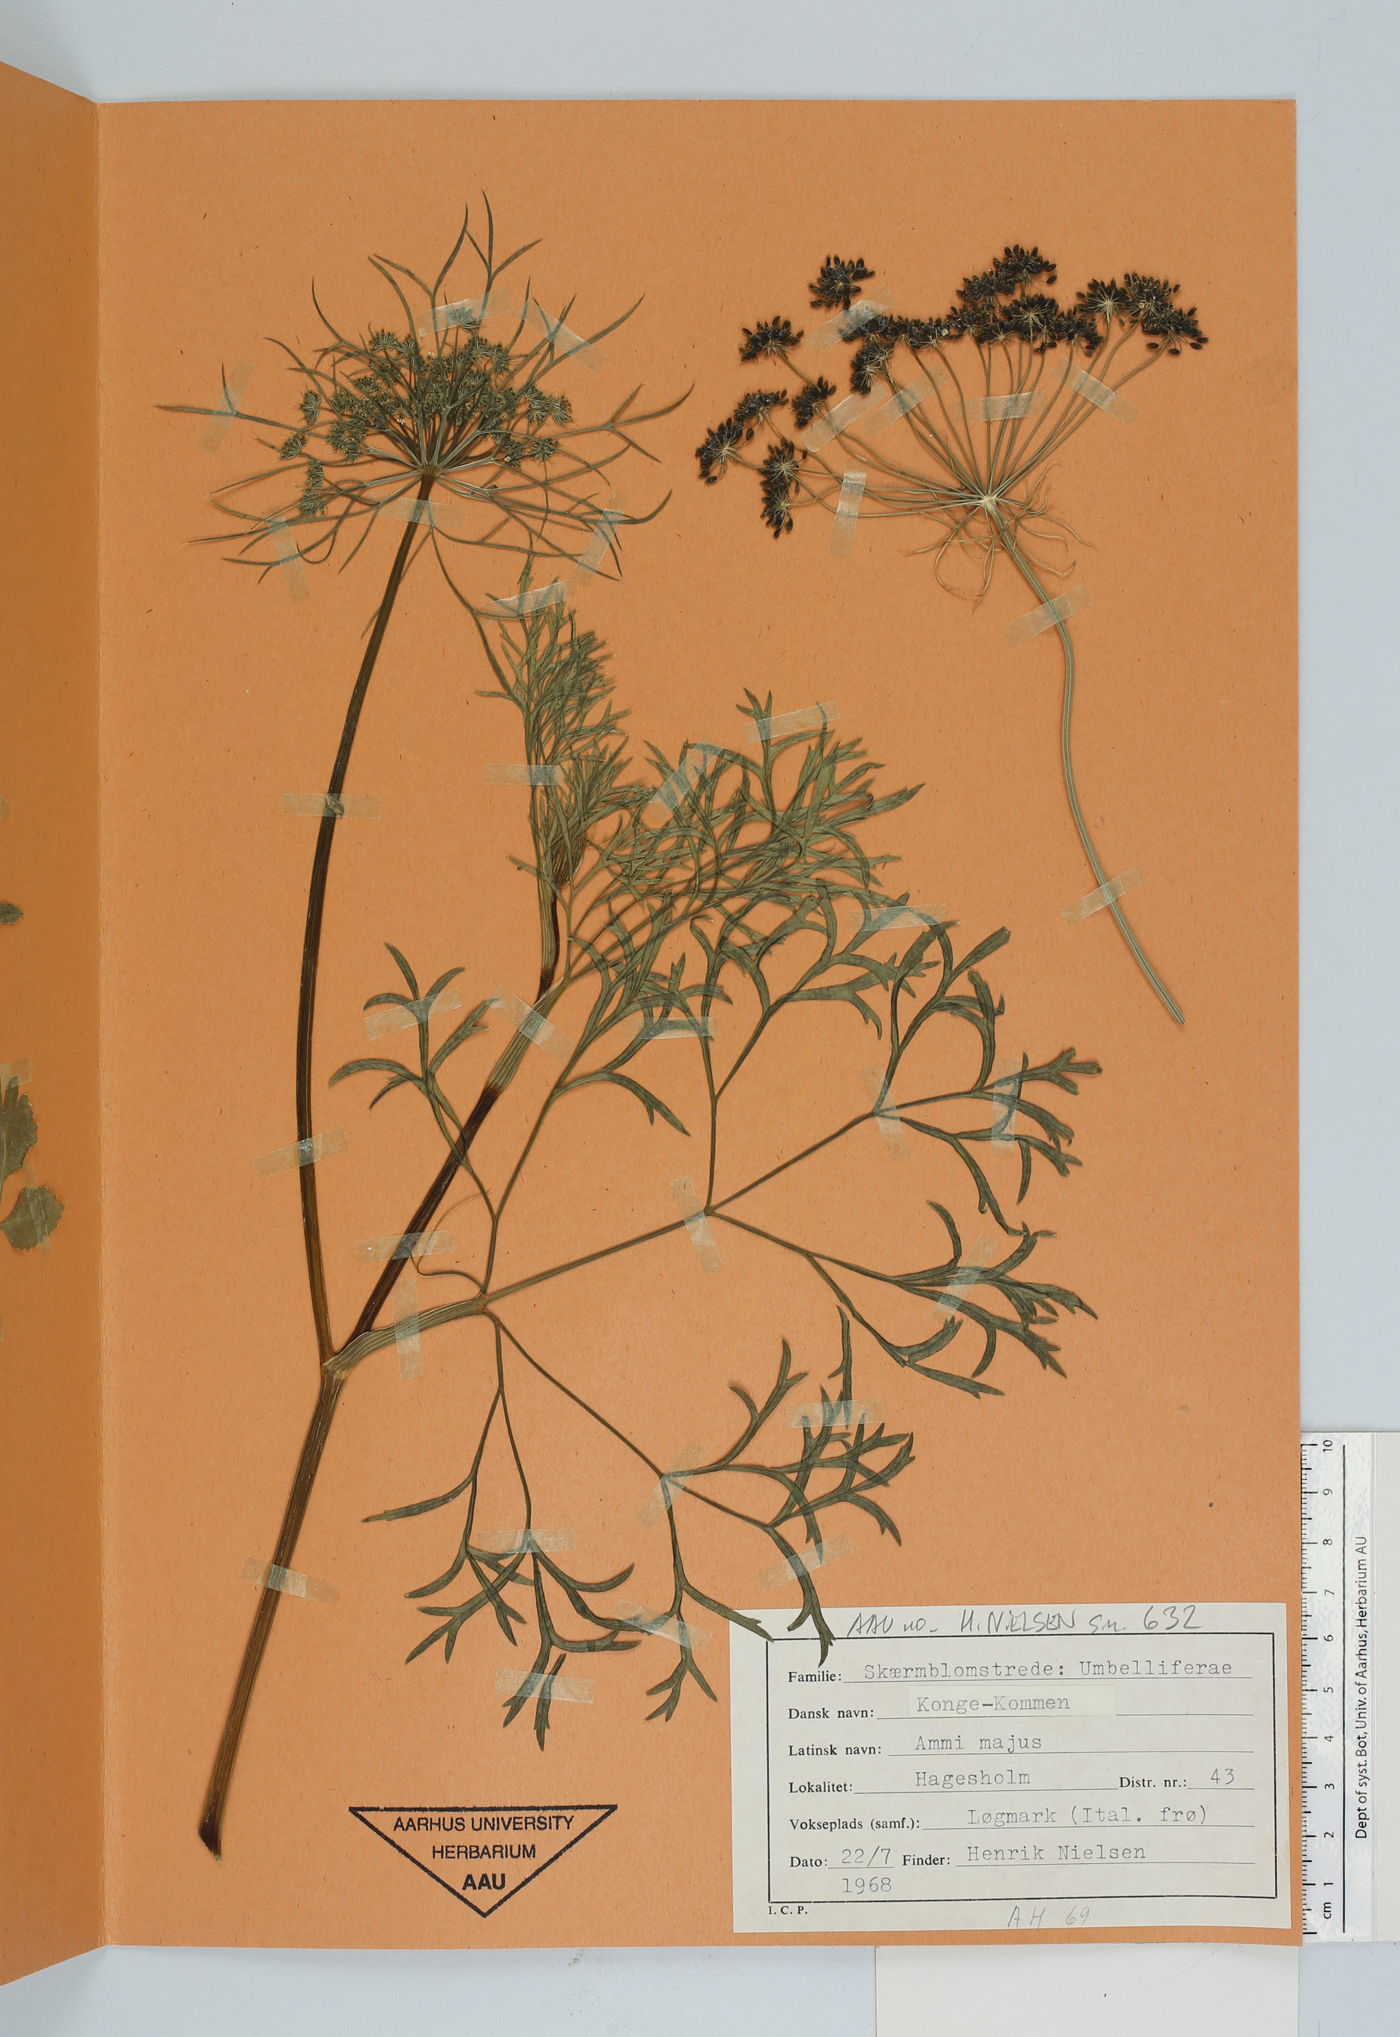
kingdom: Plantae
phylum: Tracheophyta
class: Magnoliopsida
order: Apiales
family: Apiaceae
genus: Ammi
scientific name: Ammi majus
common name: Bullwort
